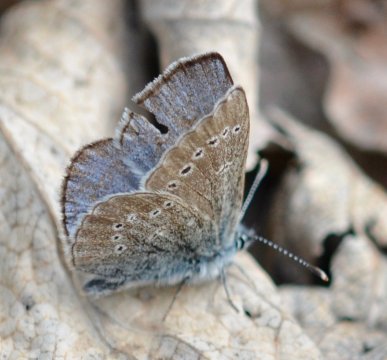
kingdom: Animalia
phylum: Arthropoda
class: Insecta
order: Lepidoptera
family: Lycaenidae
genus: Glaucopsyche
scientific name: Glaucopsyche lygdamus
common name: Silvery Blue
